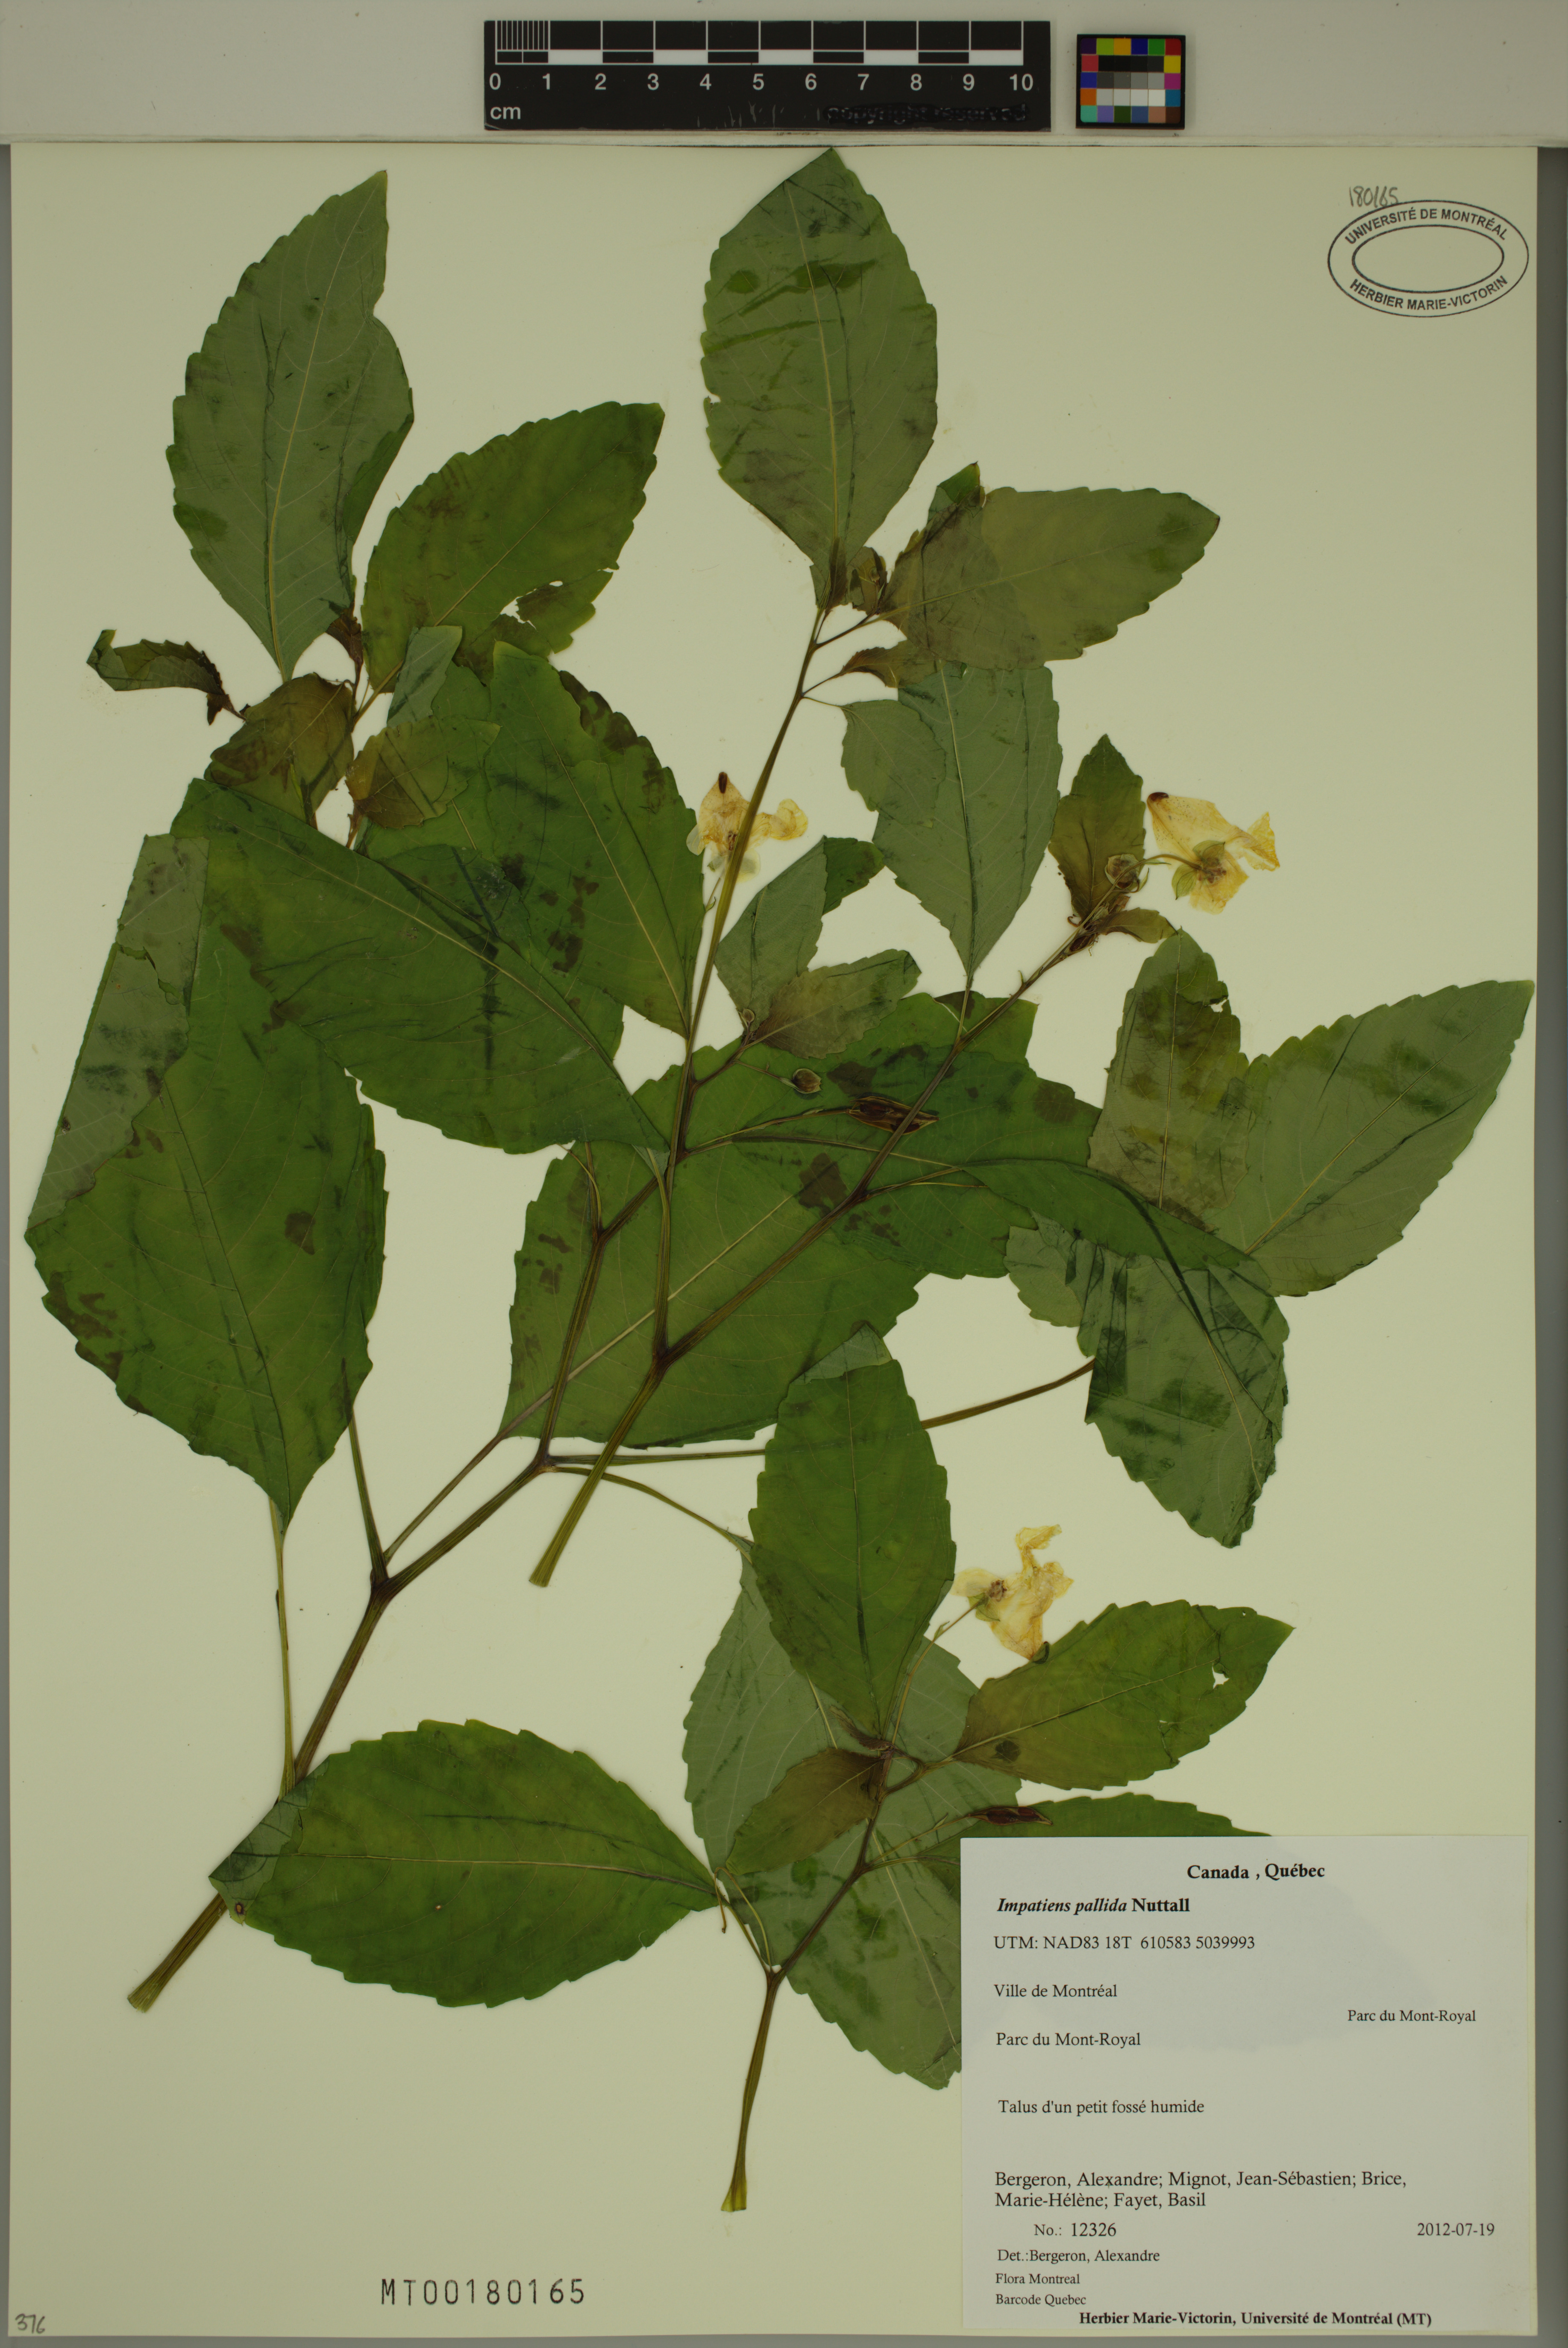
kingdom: Plantae
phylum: Tracheophyta
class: Magnoliopsida
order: Ericales
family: Balsaminaceae
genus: Impatiens
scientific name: Impatiens pallida
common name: Pale snapweed
